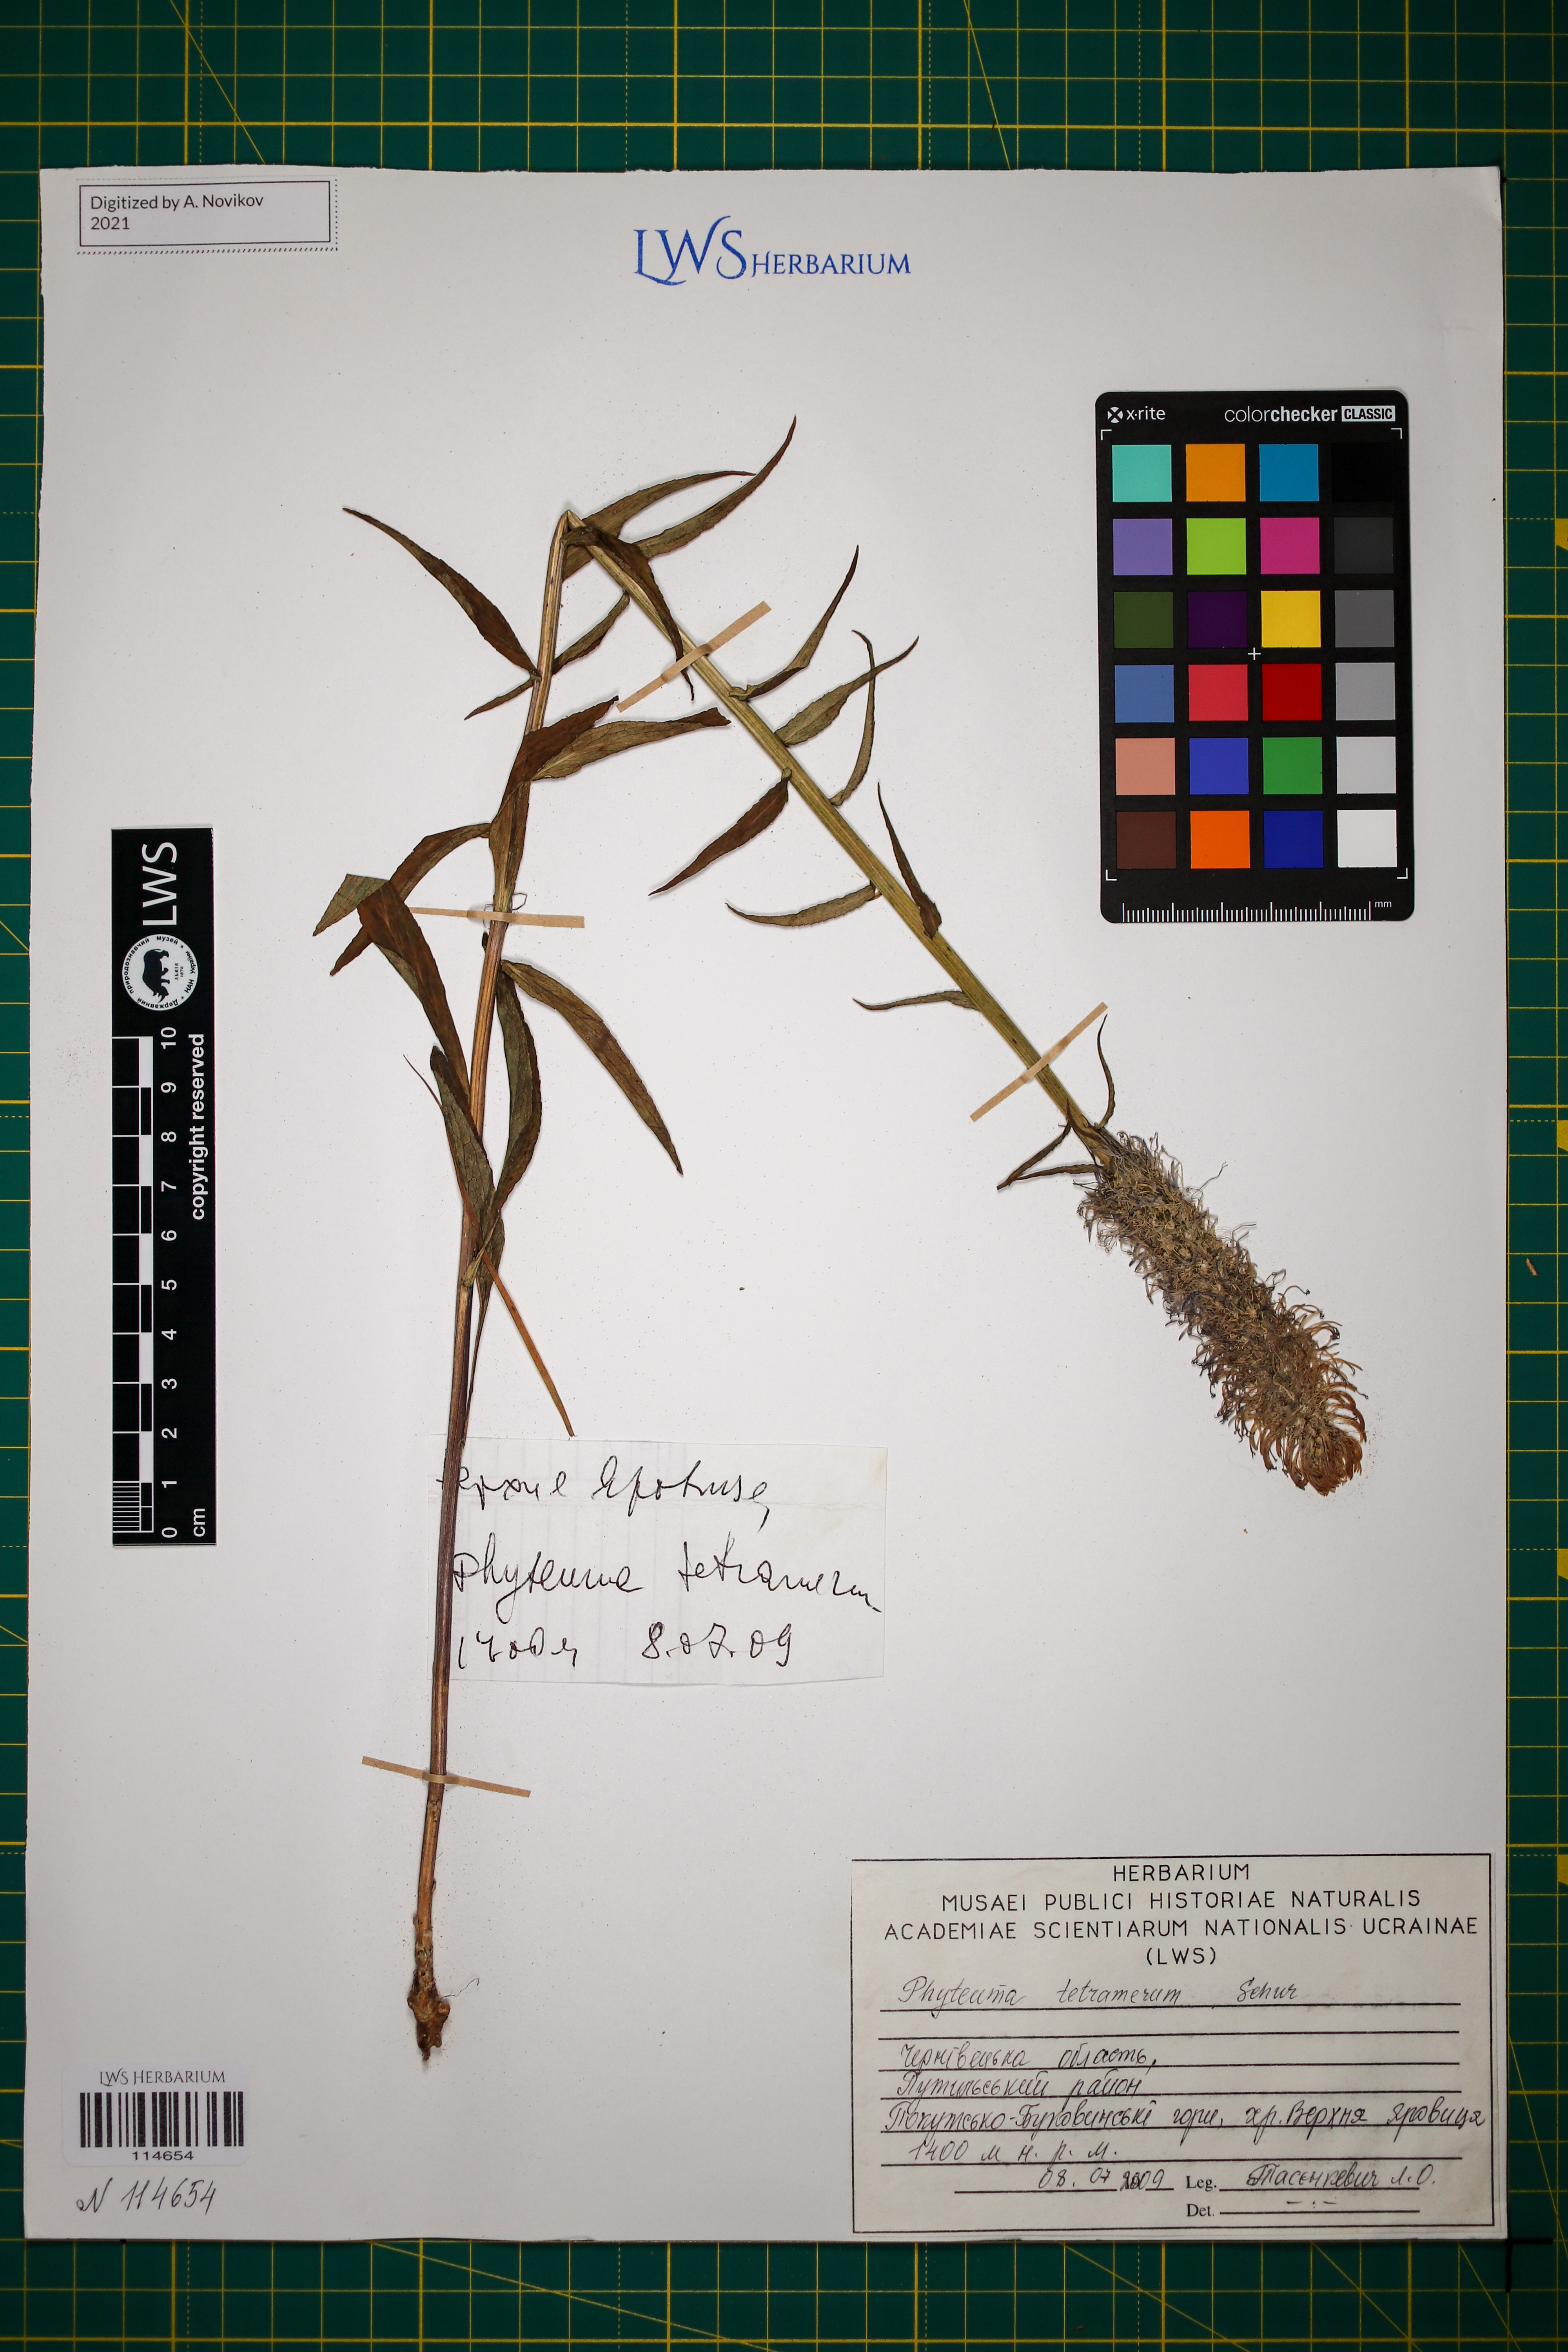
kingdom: Plantae
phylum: Tracheophyta
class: Magnoliopsida
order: Asterales
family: Campanulaceae
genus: Phyteuma
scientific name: Phyteuma tetramerum
